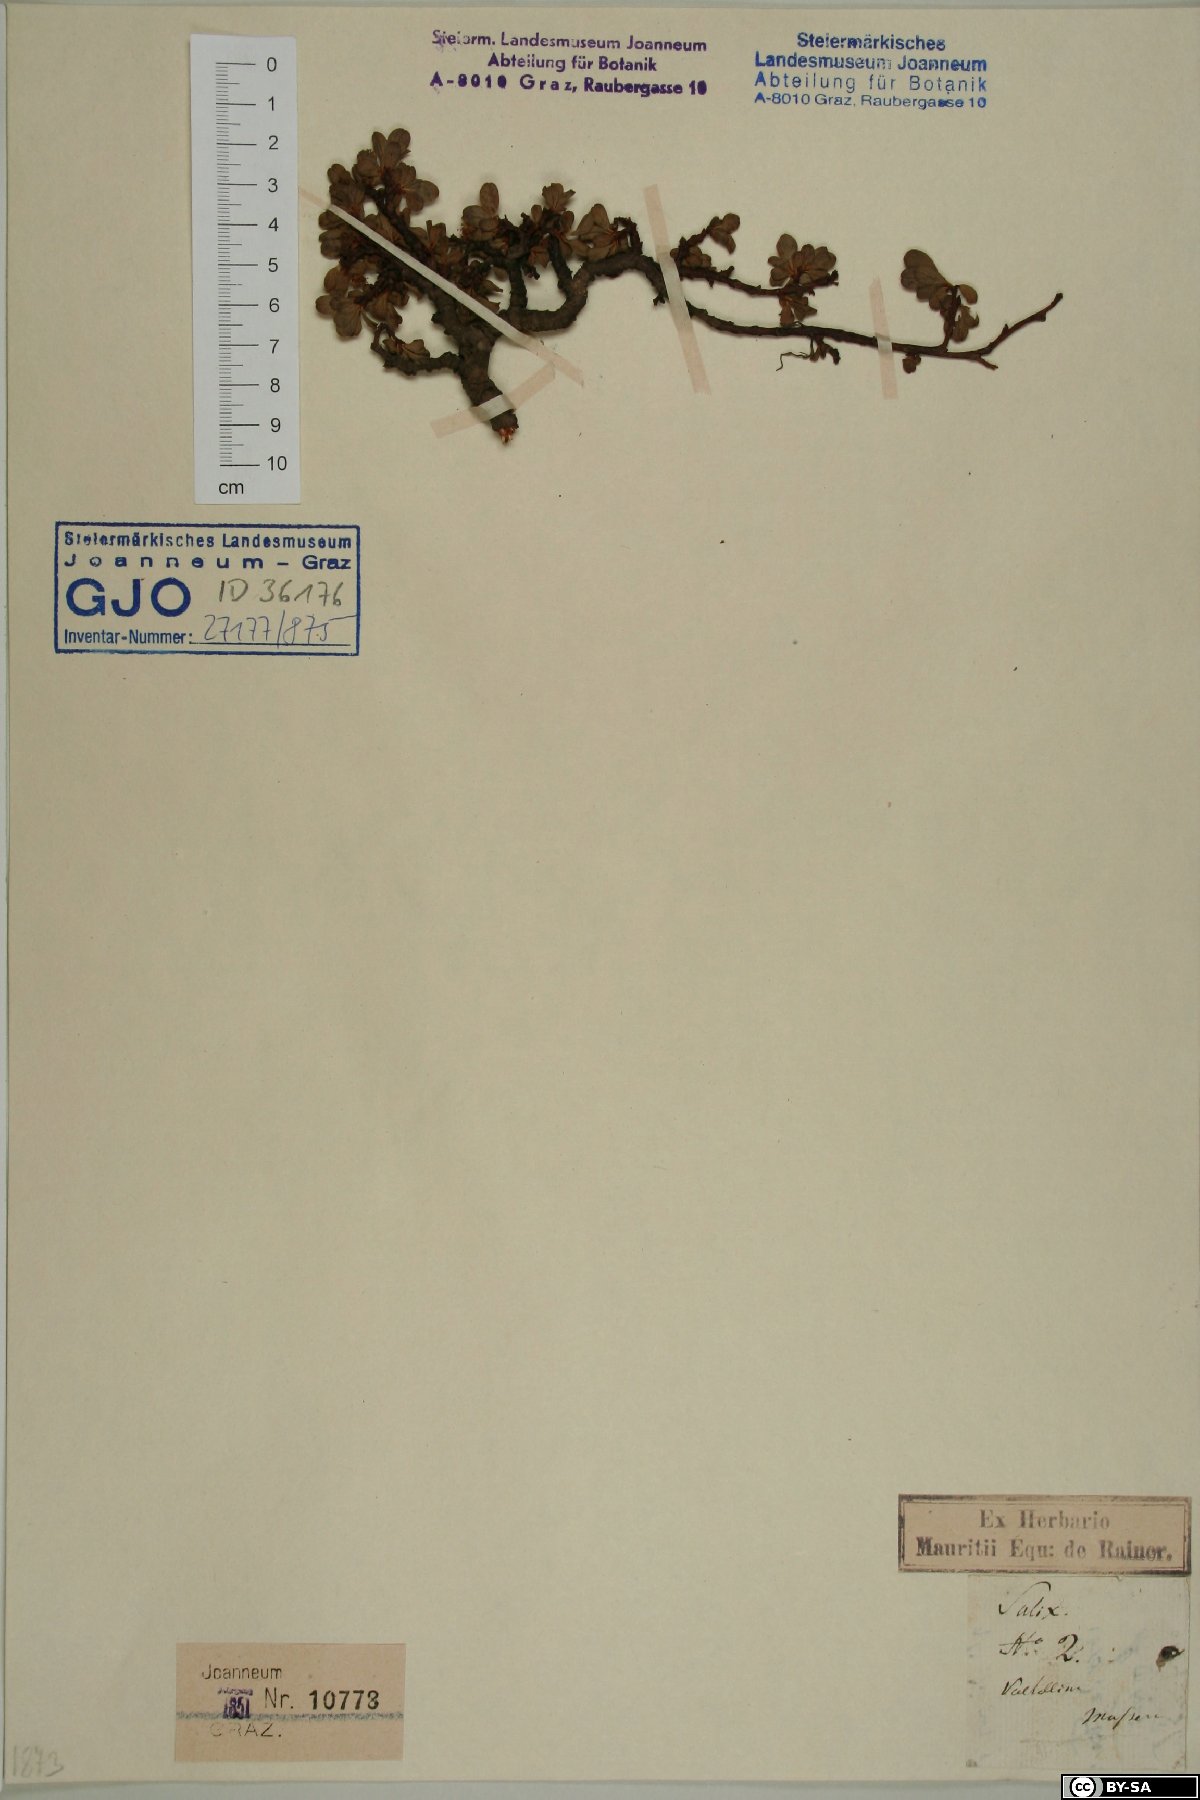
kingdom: Plantae
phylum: Tracheophyta
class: Magnoliopsida
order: Malpighiales
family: Salicaceae
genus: Salix
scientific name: Salix retusa
